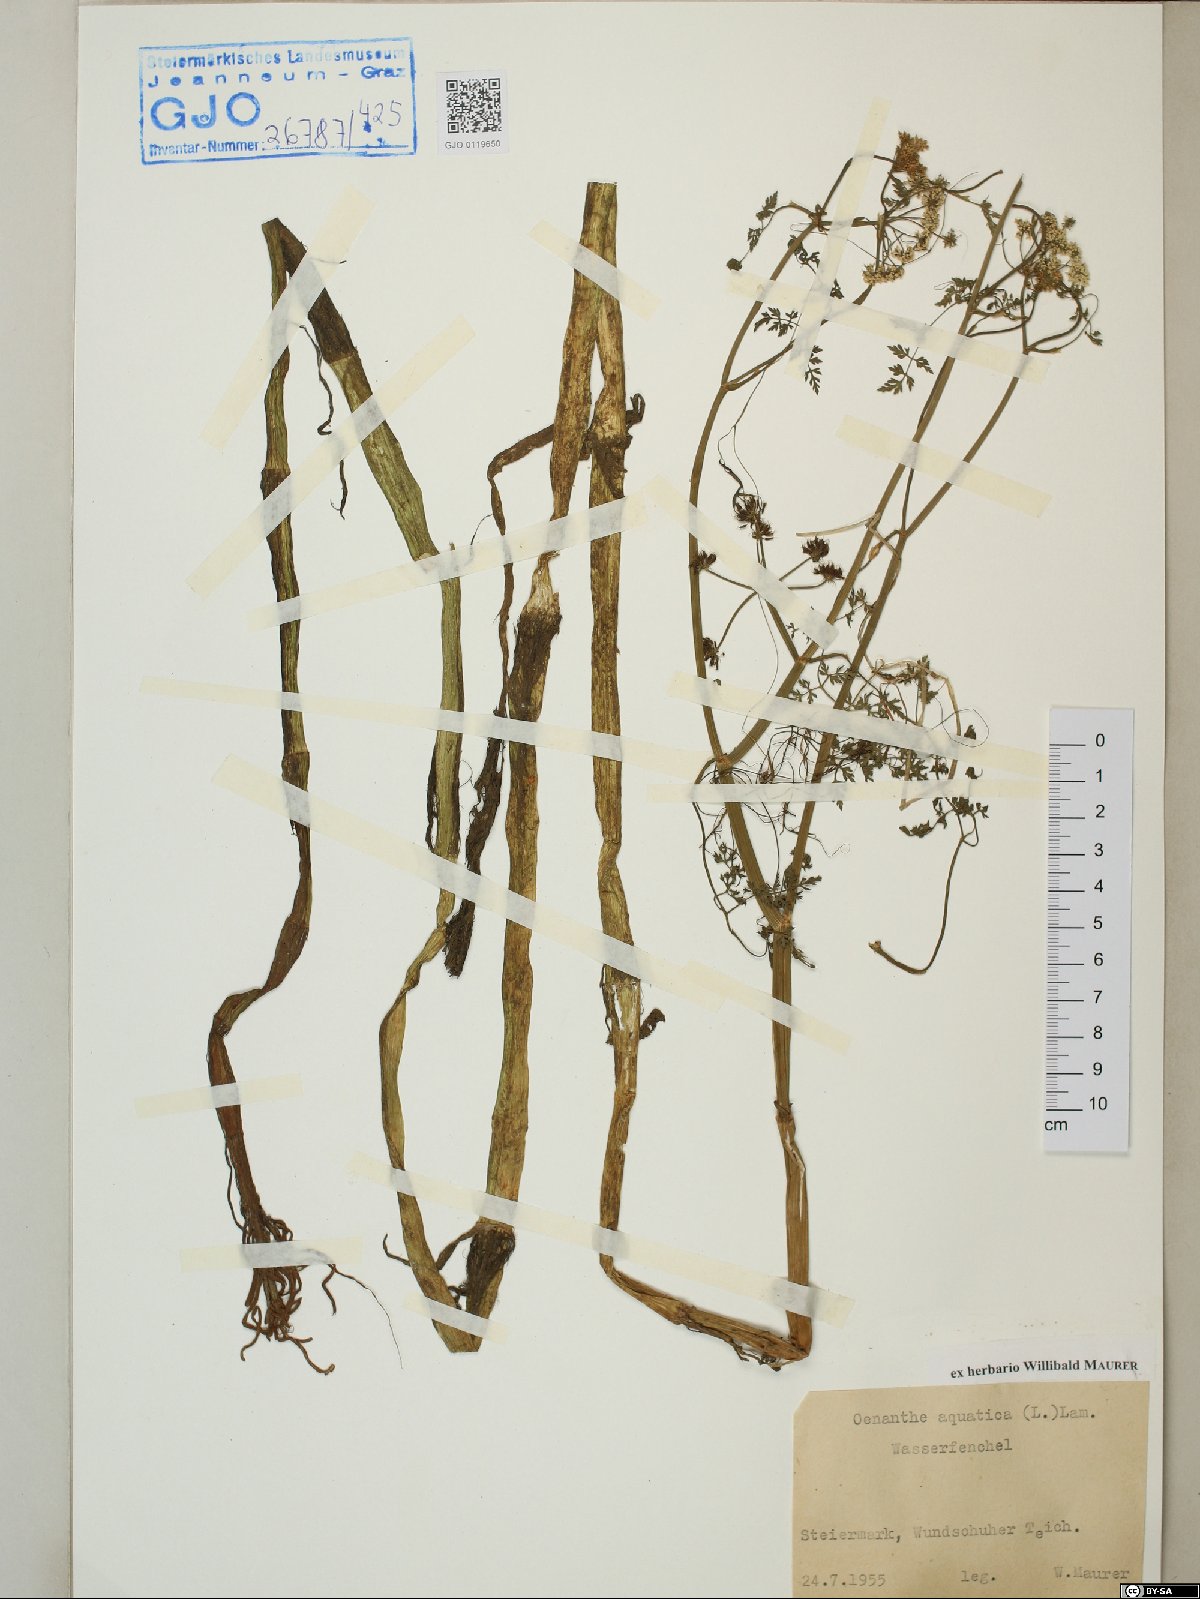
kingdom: Plantae
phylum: Tracheophyta
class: Magnoliopsida
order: Apiales
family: Apiaceae
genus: Oenanthe
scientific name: Oenanthe aquatica
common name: Fine-leaved water-dropwort
